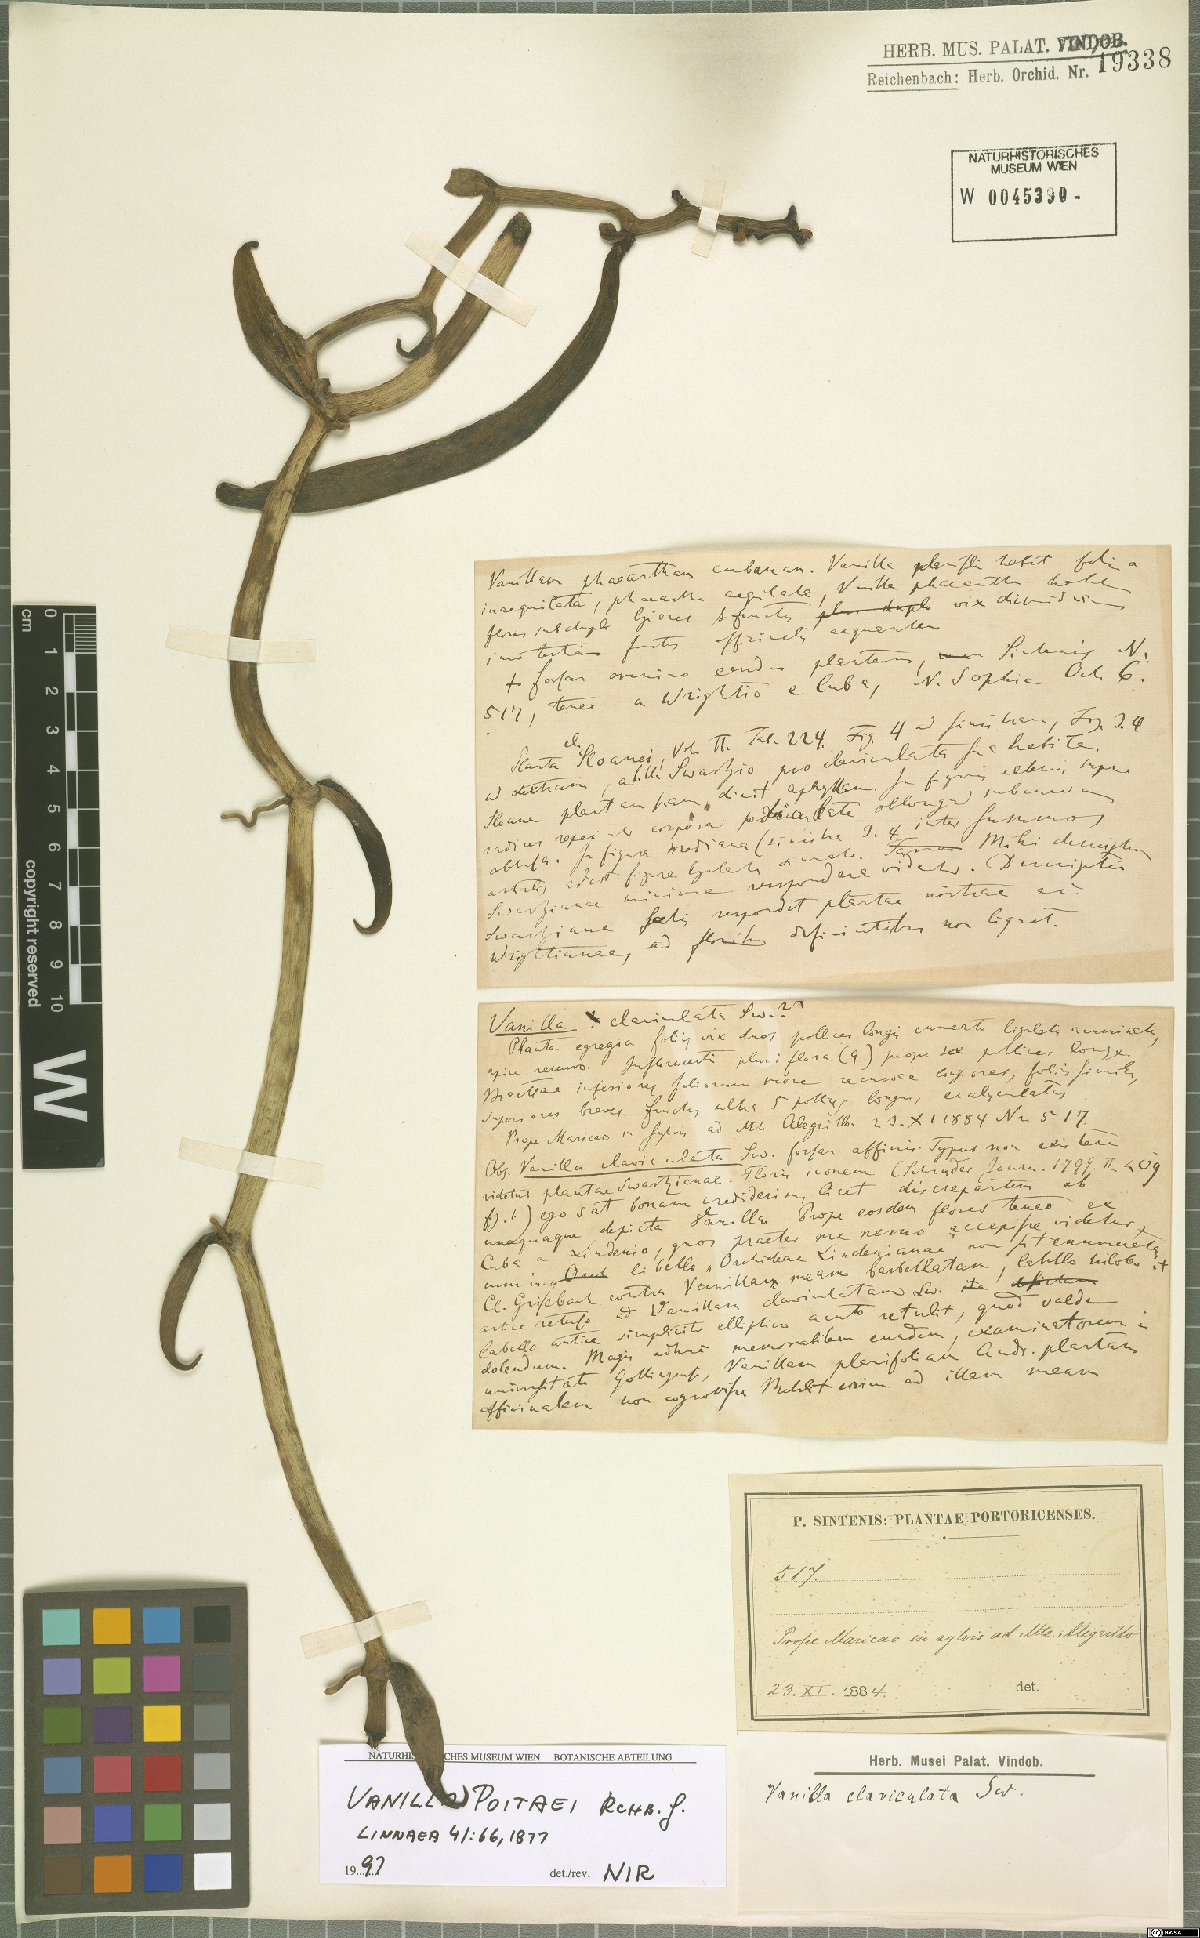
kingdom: Plantae
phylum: Tracheophyta
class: Liliopsida
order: Asparagales
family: Orchidaceae
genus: Vanilla
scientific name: Vanilla poitaei
